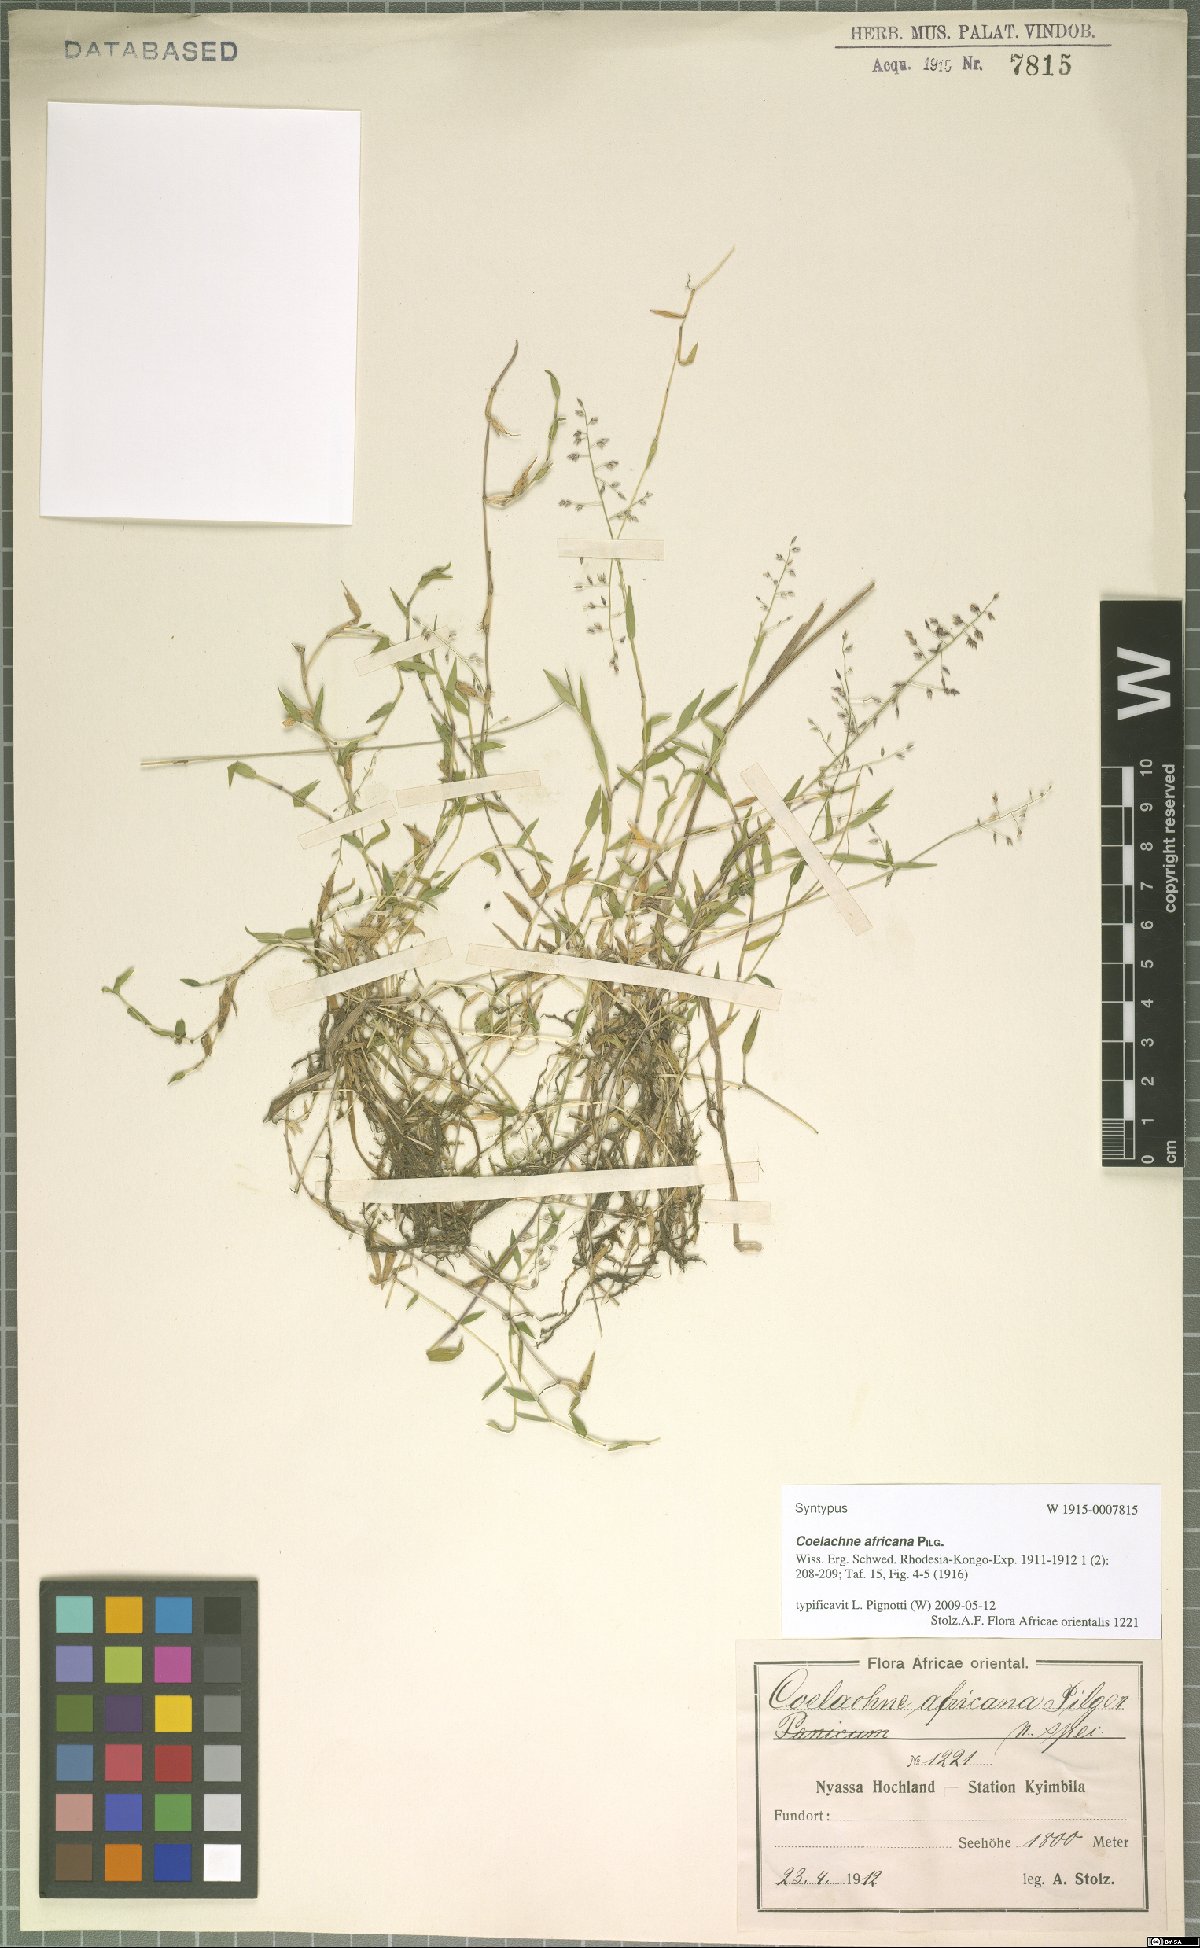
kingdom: Plantae
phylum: Tracheophyta
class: Liliopsida
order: Poales
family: Poaceae
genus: Coelachne
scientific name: Coelachne africana
